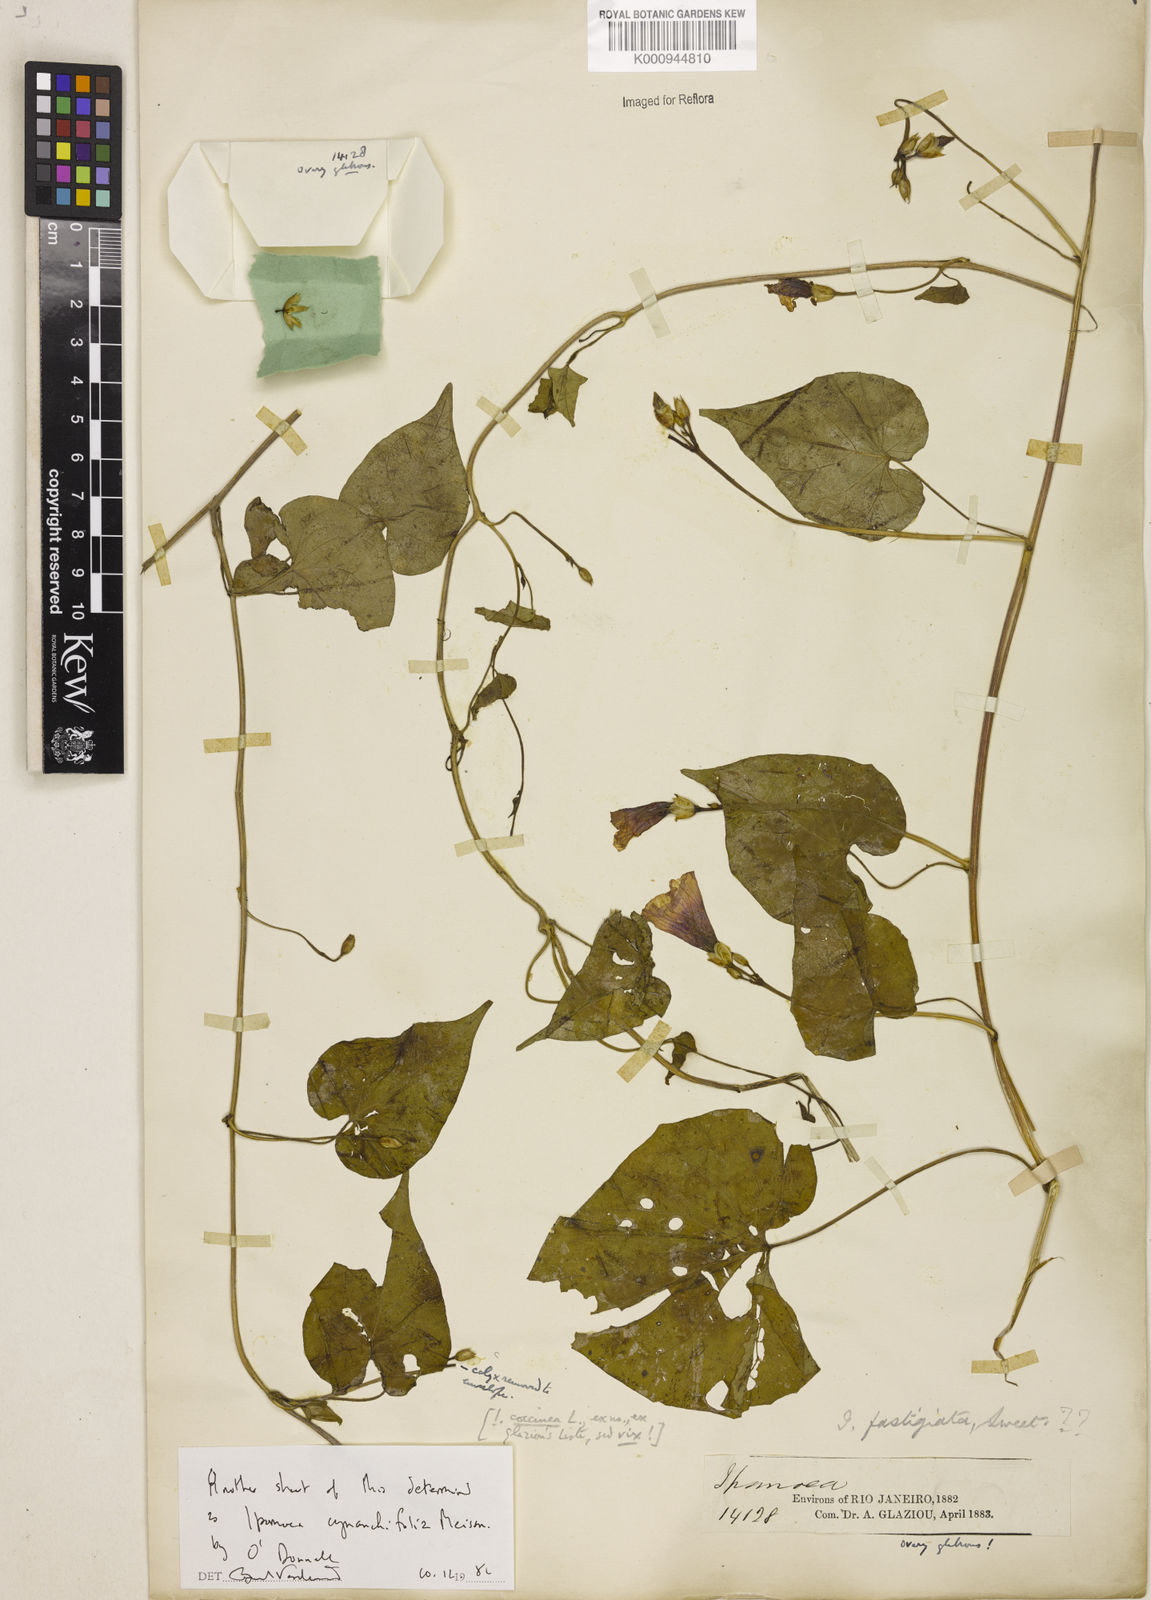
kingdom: Plantae
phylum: Tracheophyta
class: Magnoliopsida
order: Solanales
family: Convolvulaceae
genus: Ipomoea
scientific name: Ipomoea cynanchifolia
